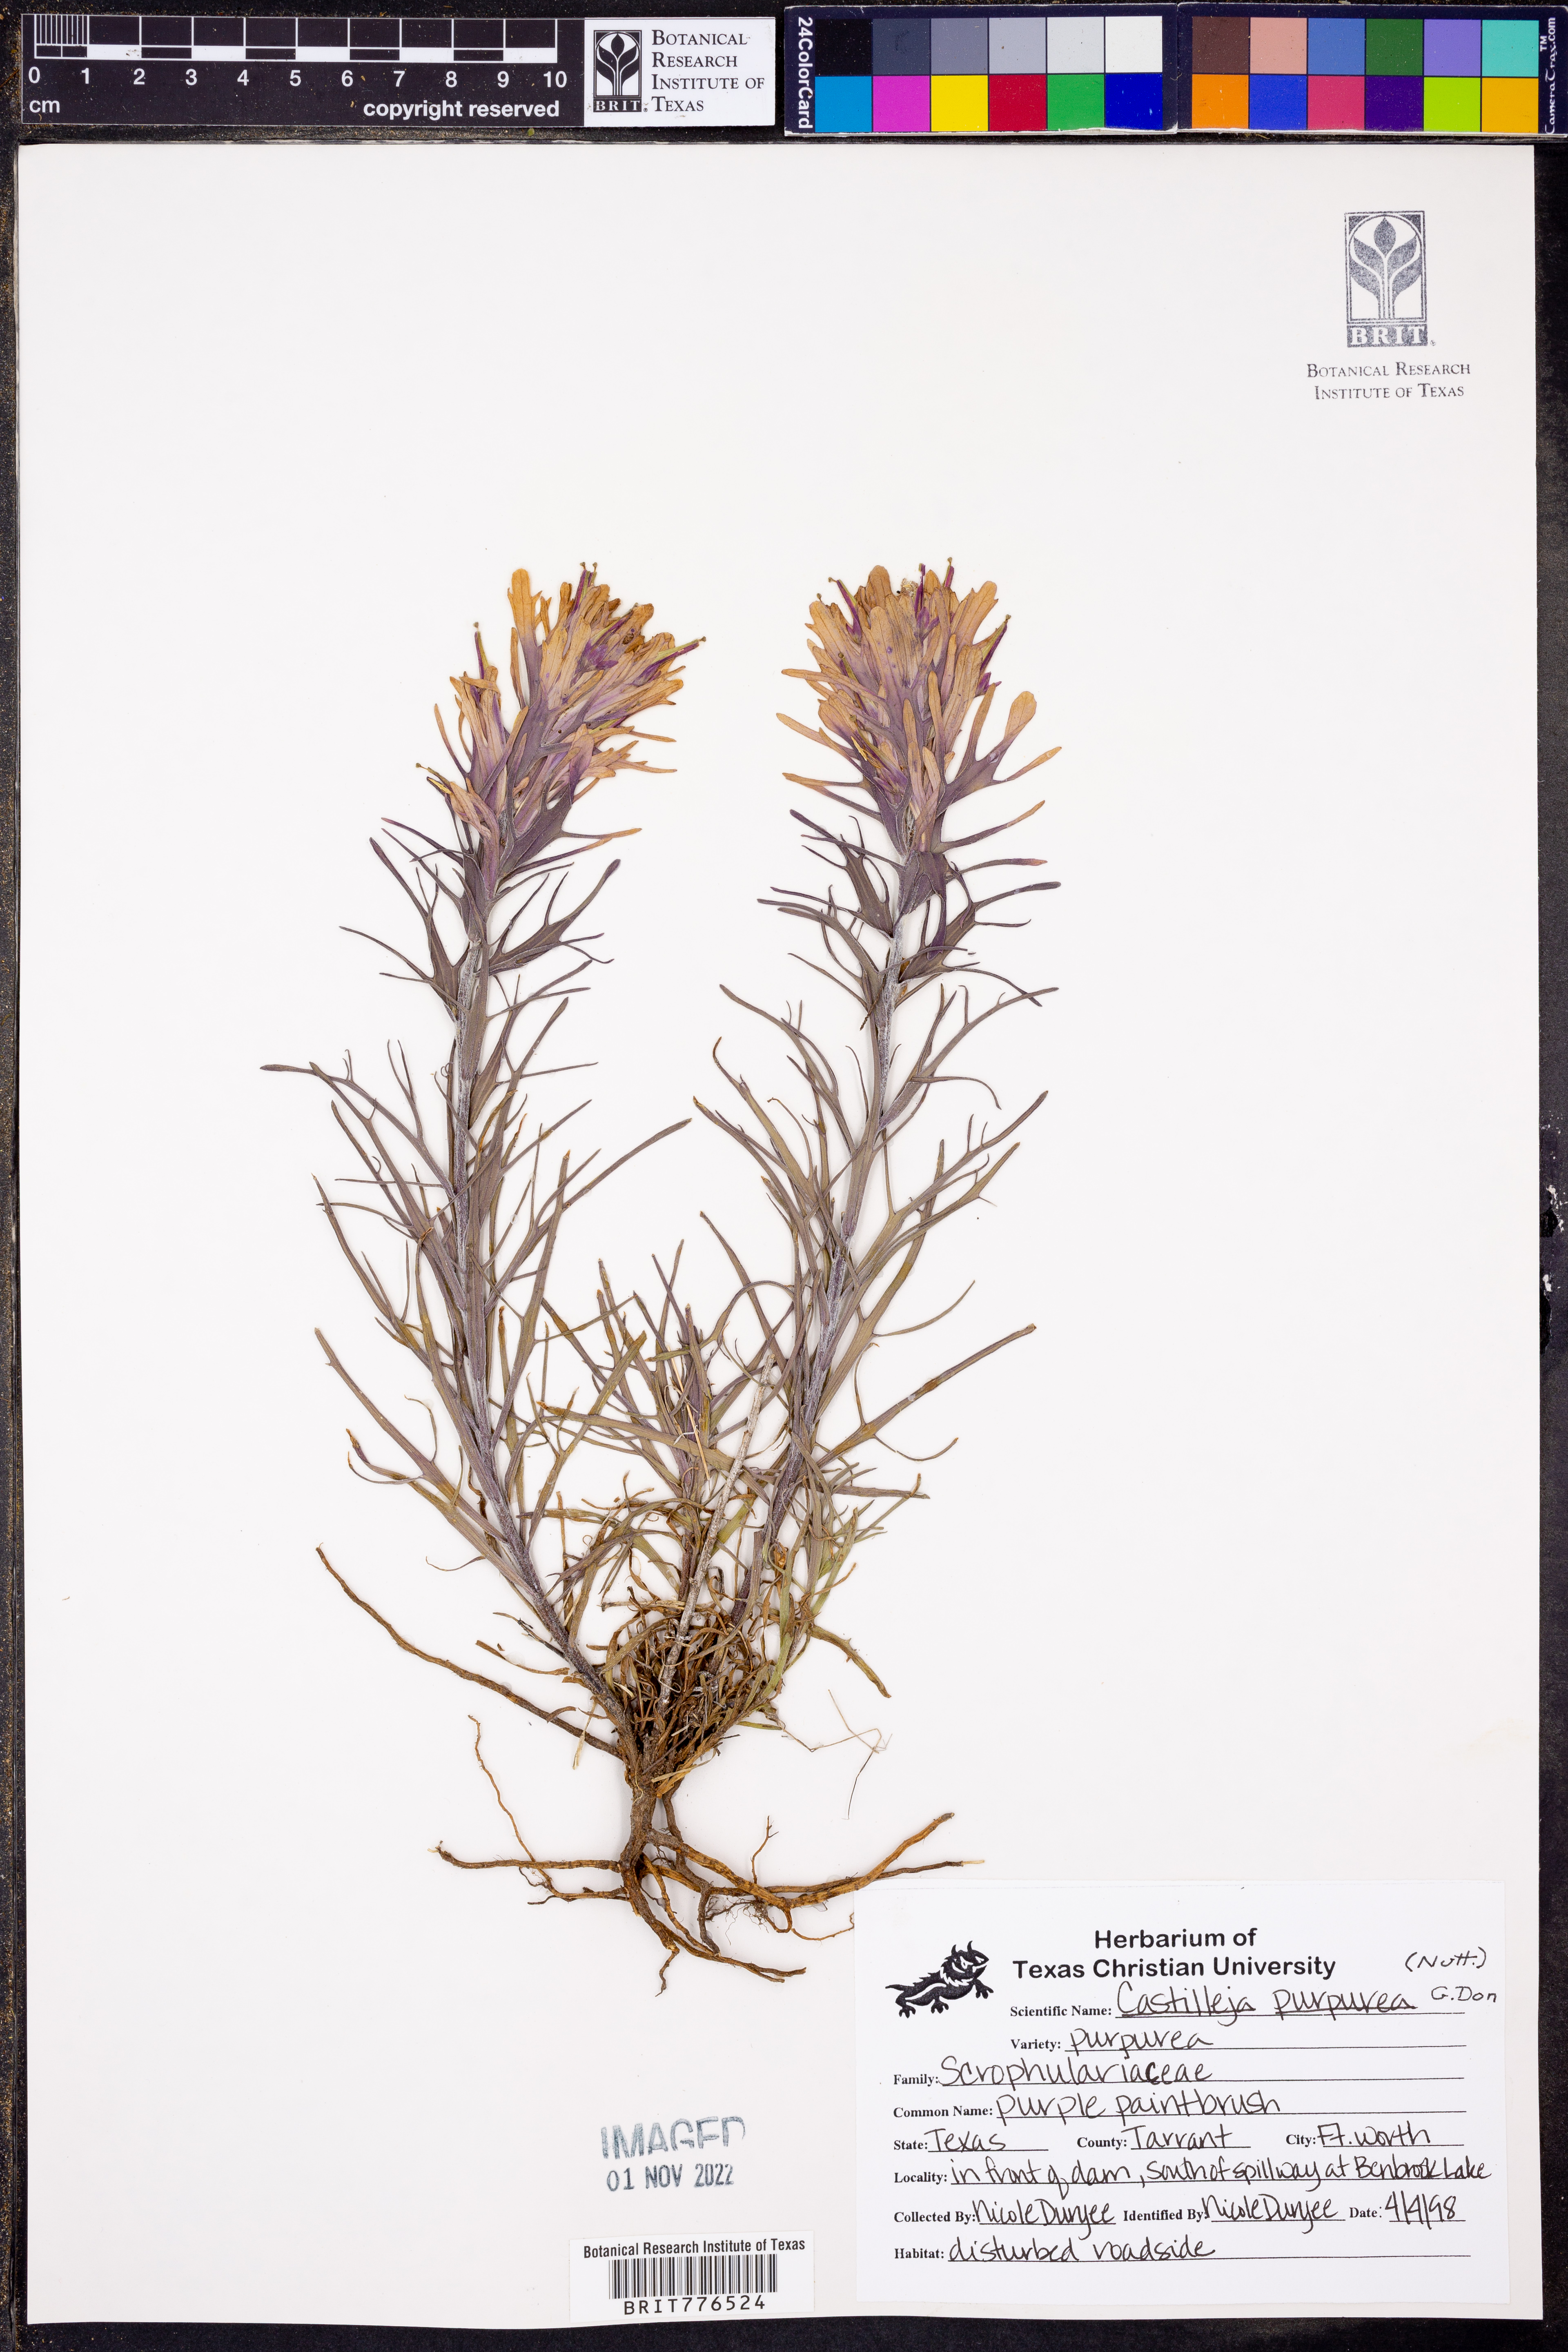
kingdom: Plantae
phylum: Tracheophyta
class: Magnoliopsida
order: Lamiales
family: Orobanchaceae
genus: Castilleja
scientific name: Castilleja purpurea
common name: Plains paintbrush
